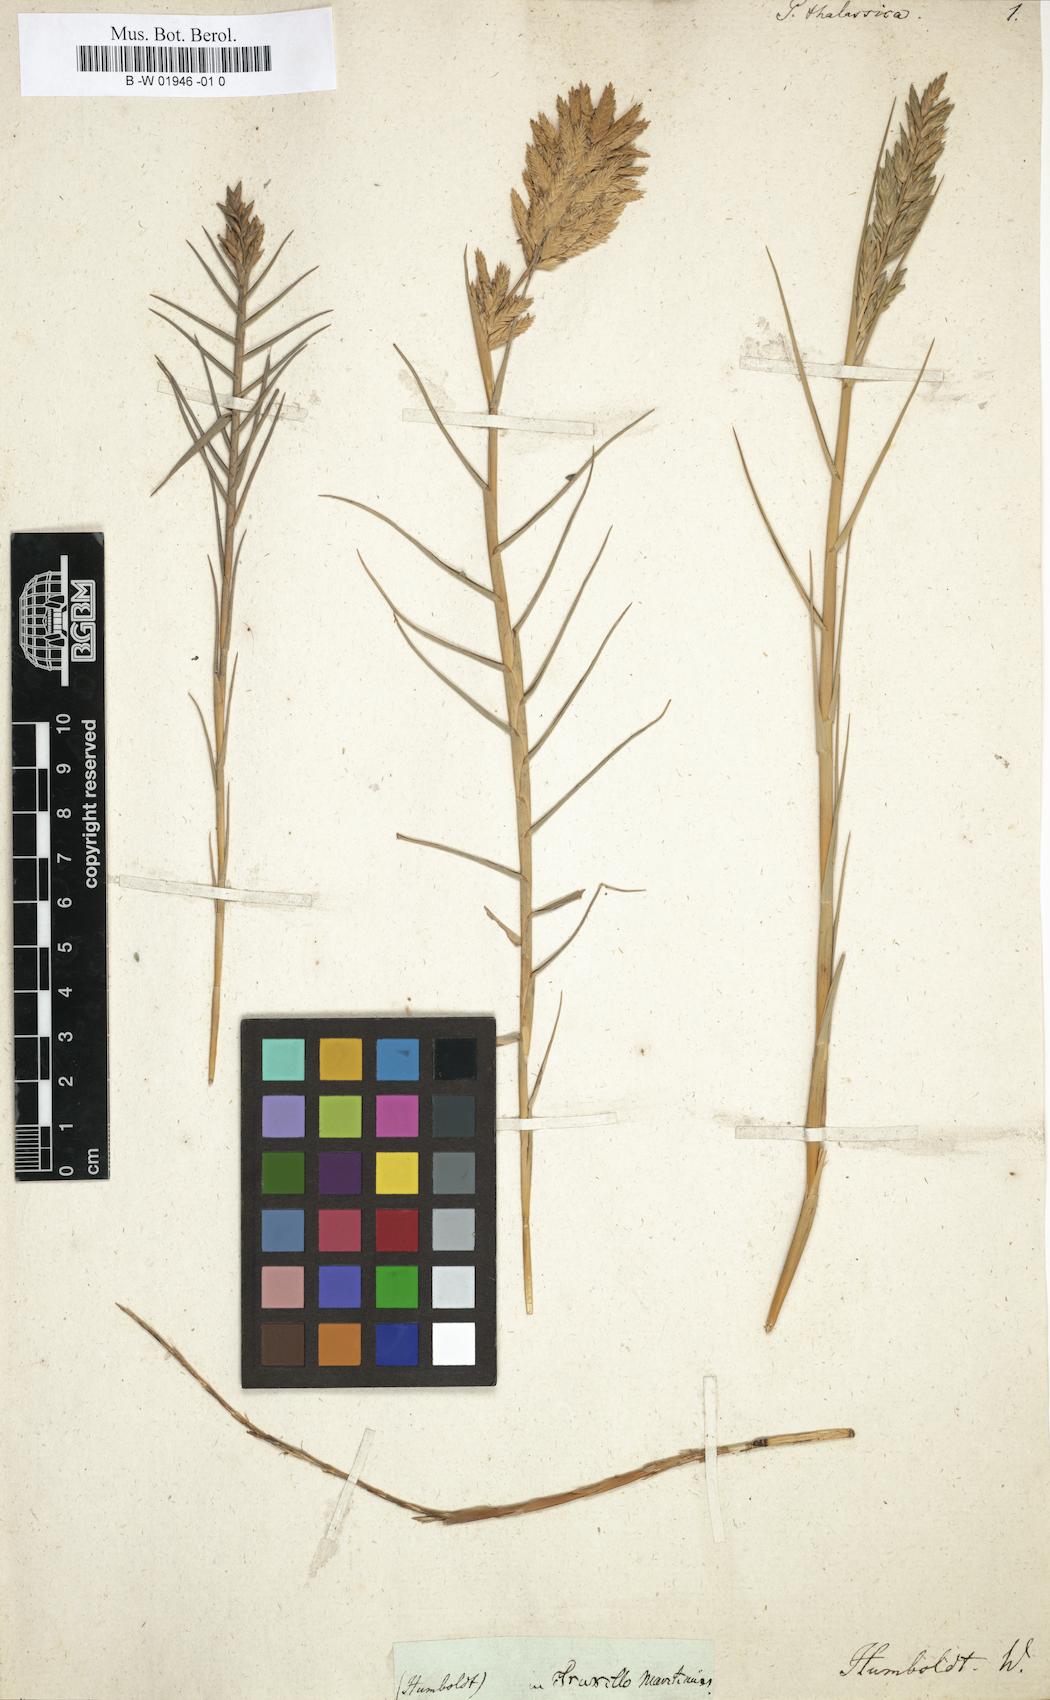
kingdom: Plantae
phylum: Tracheophyta
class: Liliopsida
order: Poales
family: Poaceae
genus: Distichlis
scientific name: Distichlis spicata
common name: Saltgrass
